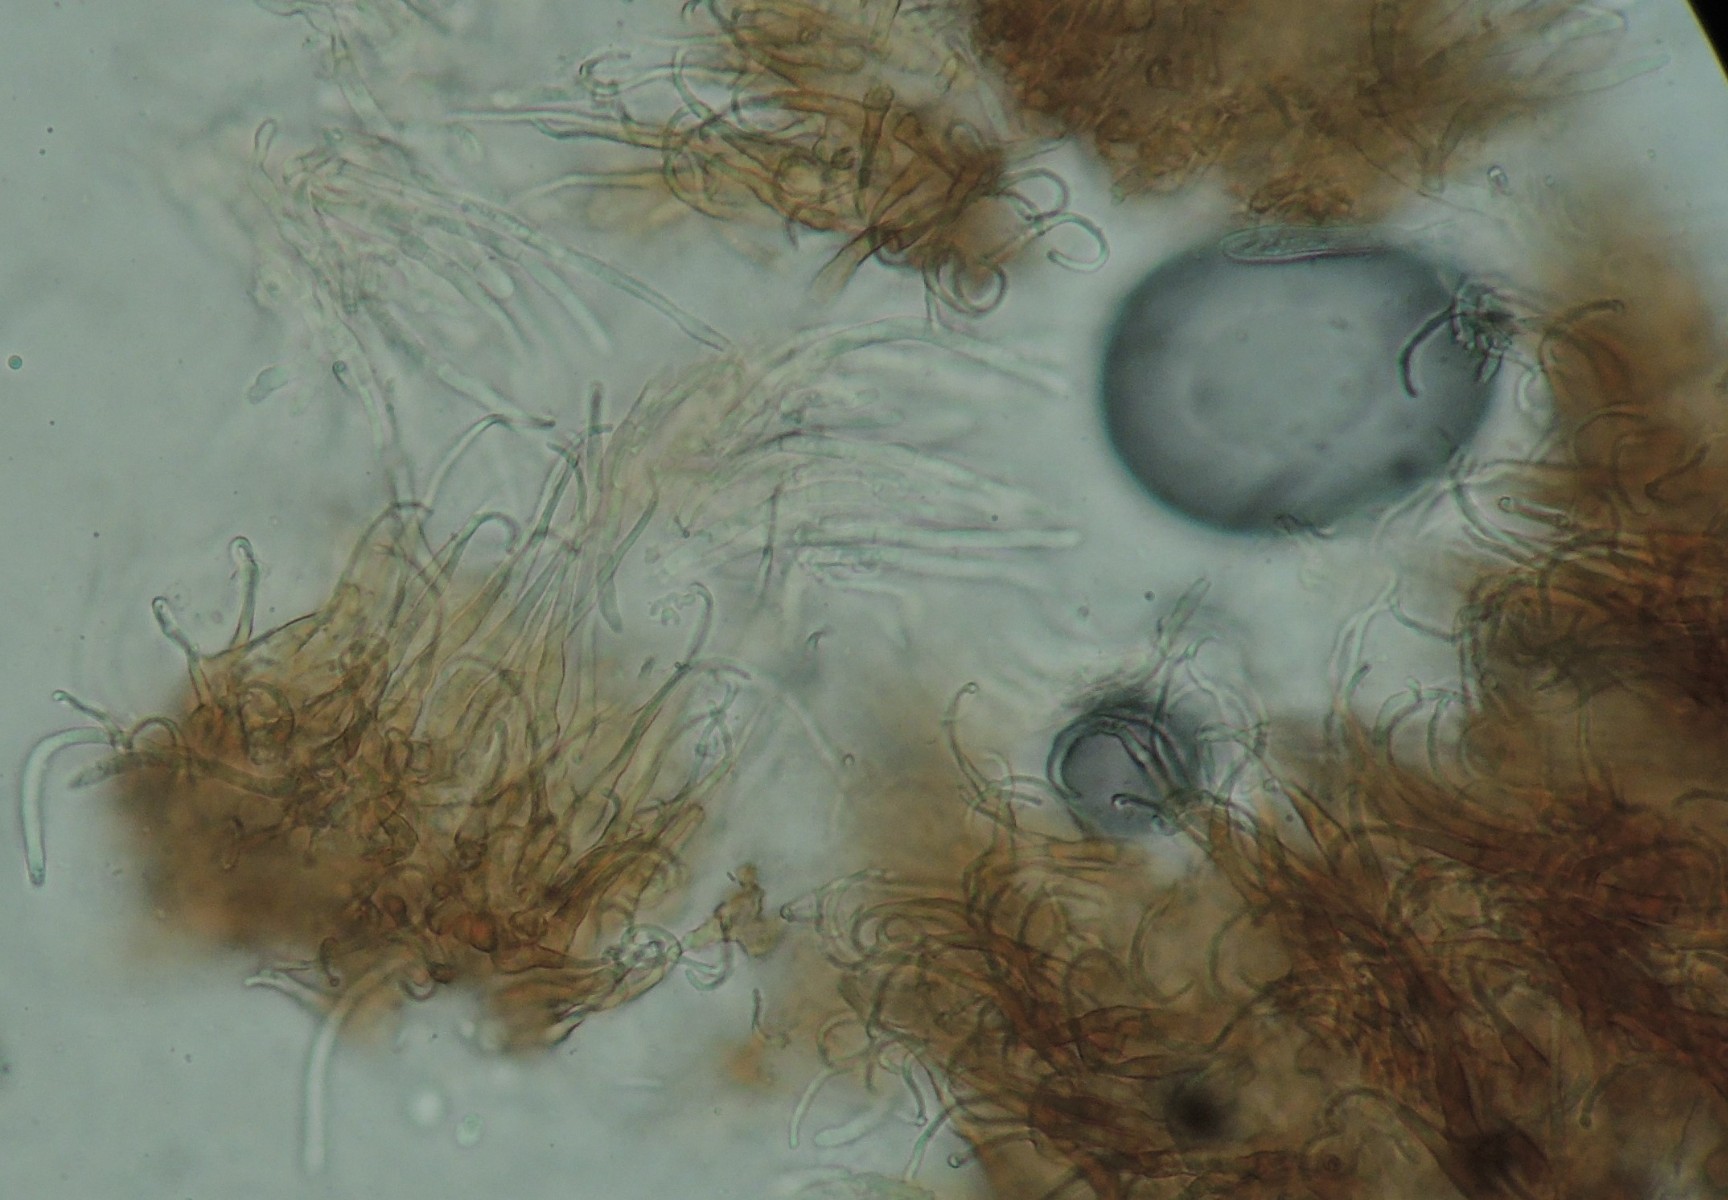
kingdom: Fungi
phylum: Ascomycota
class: Leotiomycetes
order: Helotiales
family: Hyaloscyphaceae
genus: Unguiculella
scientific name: Unguiculella robergei
